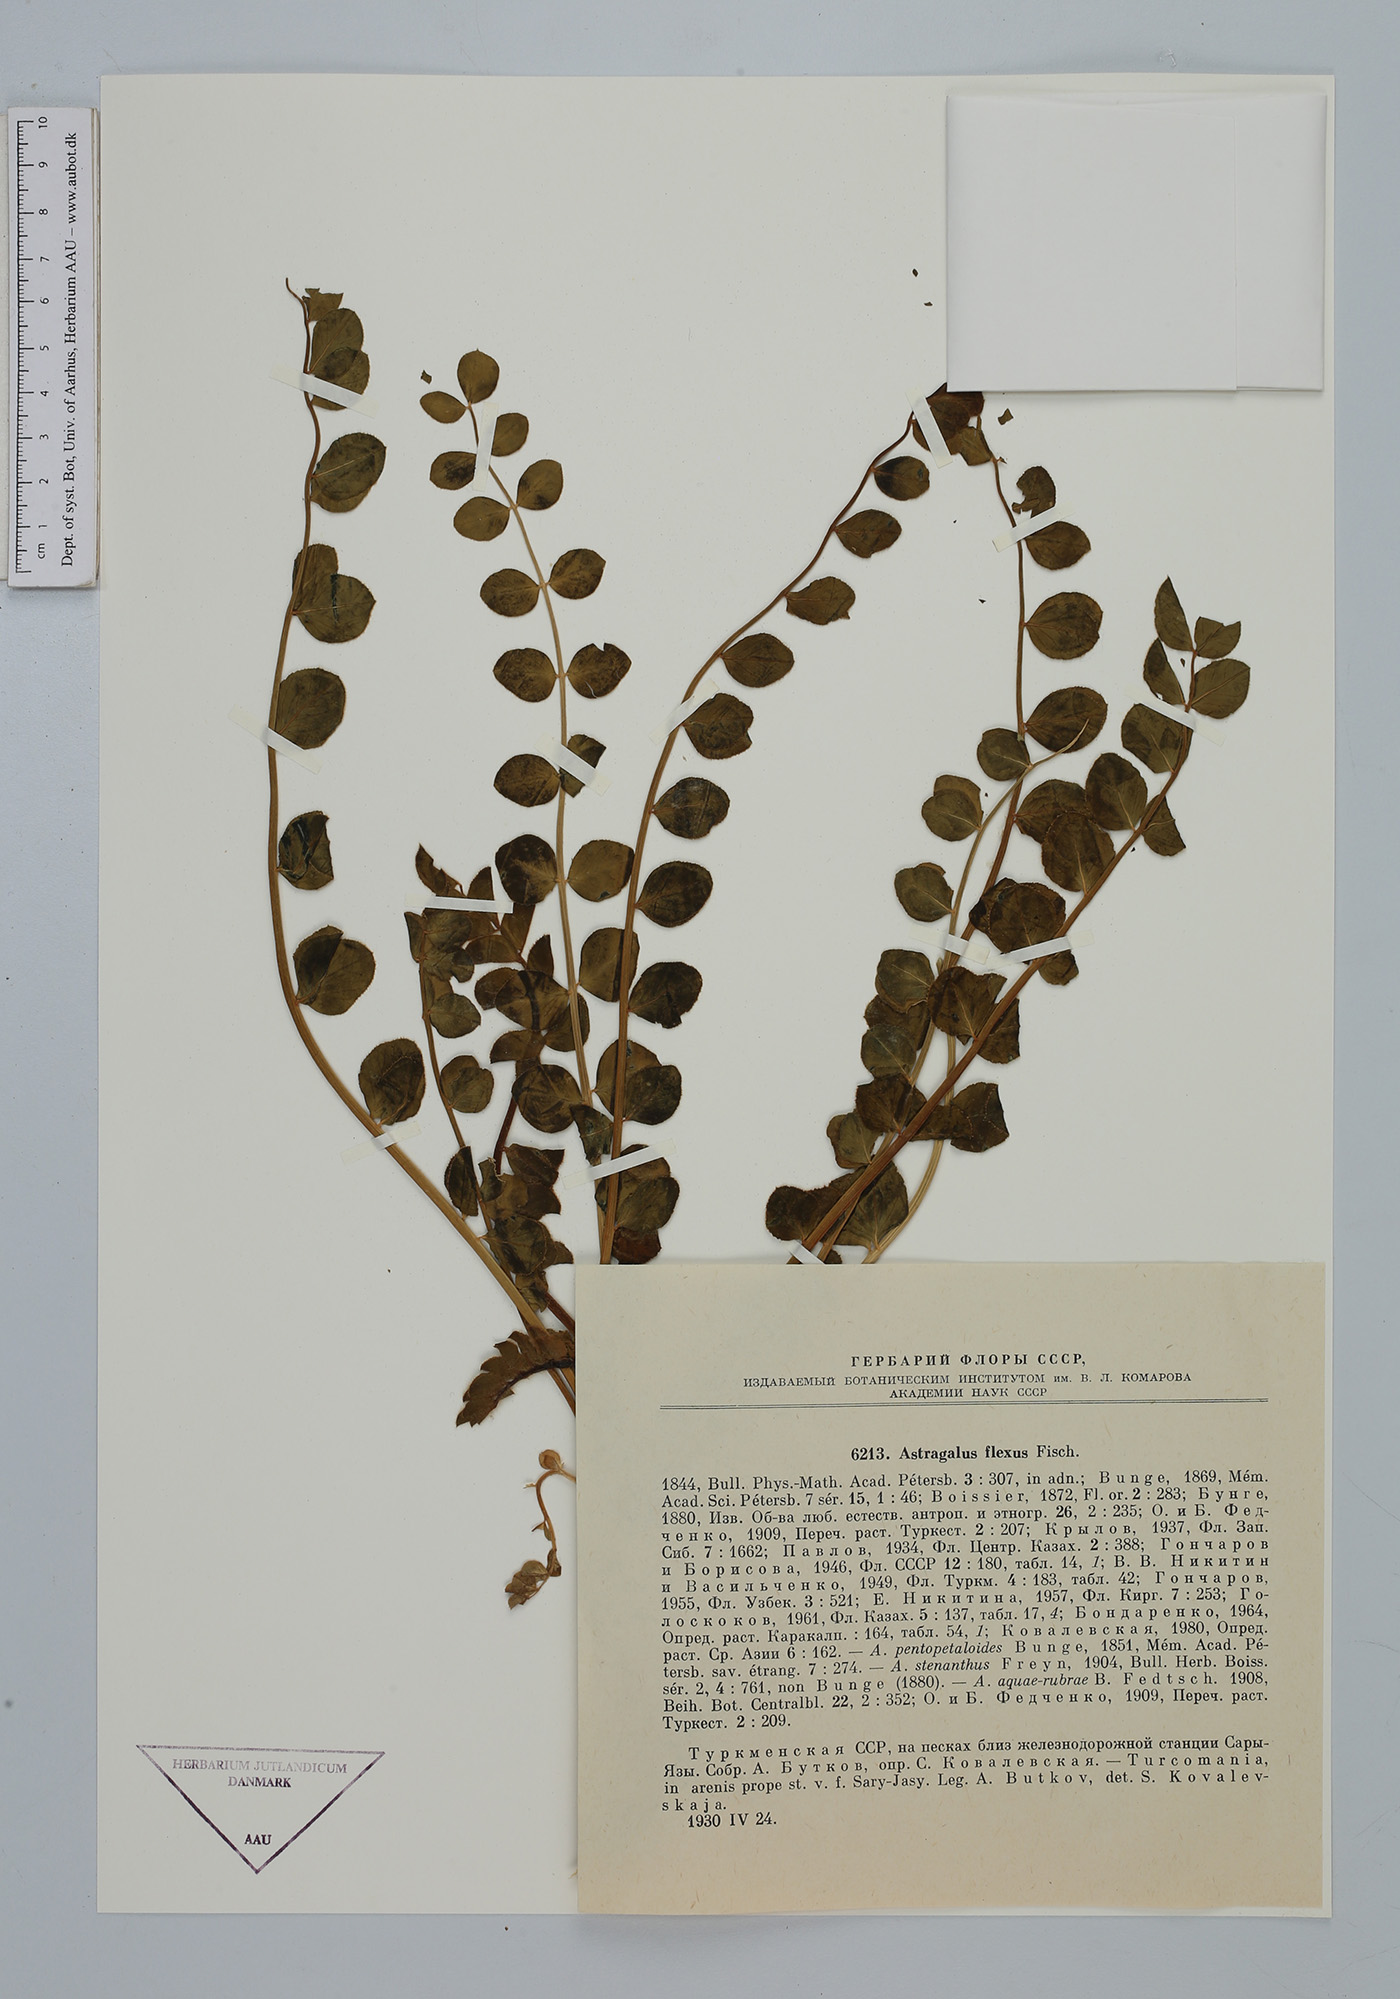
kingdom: Plantae
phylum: Tracheophyta
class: Magnoliopsida
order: Fabales
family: Fabaceae
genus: Astragalus
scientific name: Astragalus flexus
